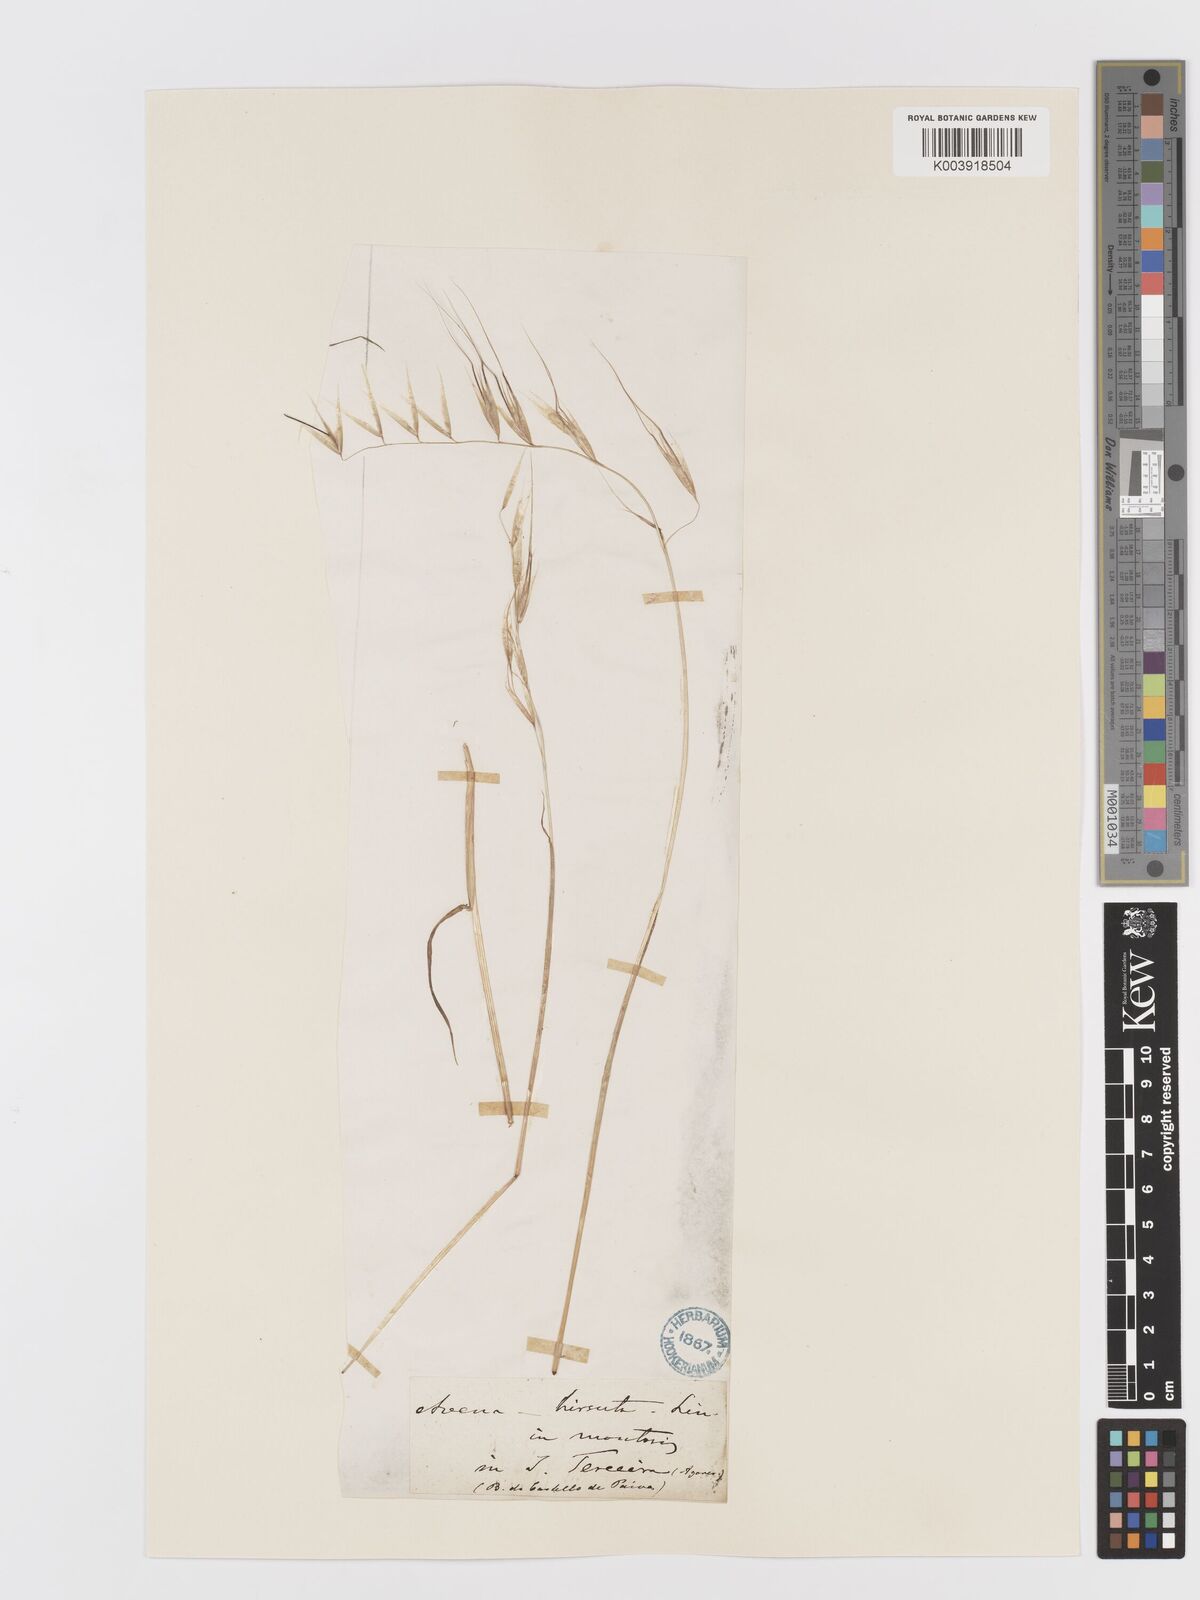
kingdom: Plantae
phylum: Tracheophyta
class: Liliopsida
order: Poales
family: Poaceae
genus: Avena
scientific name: Avena
